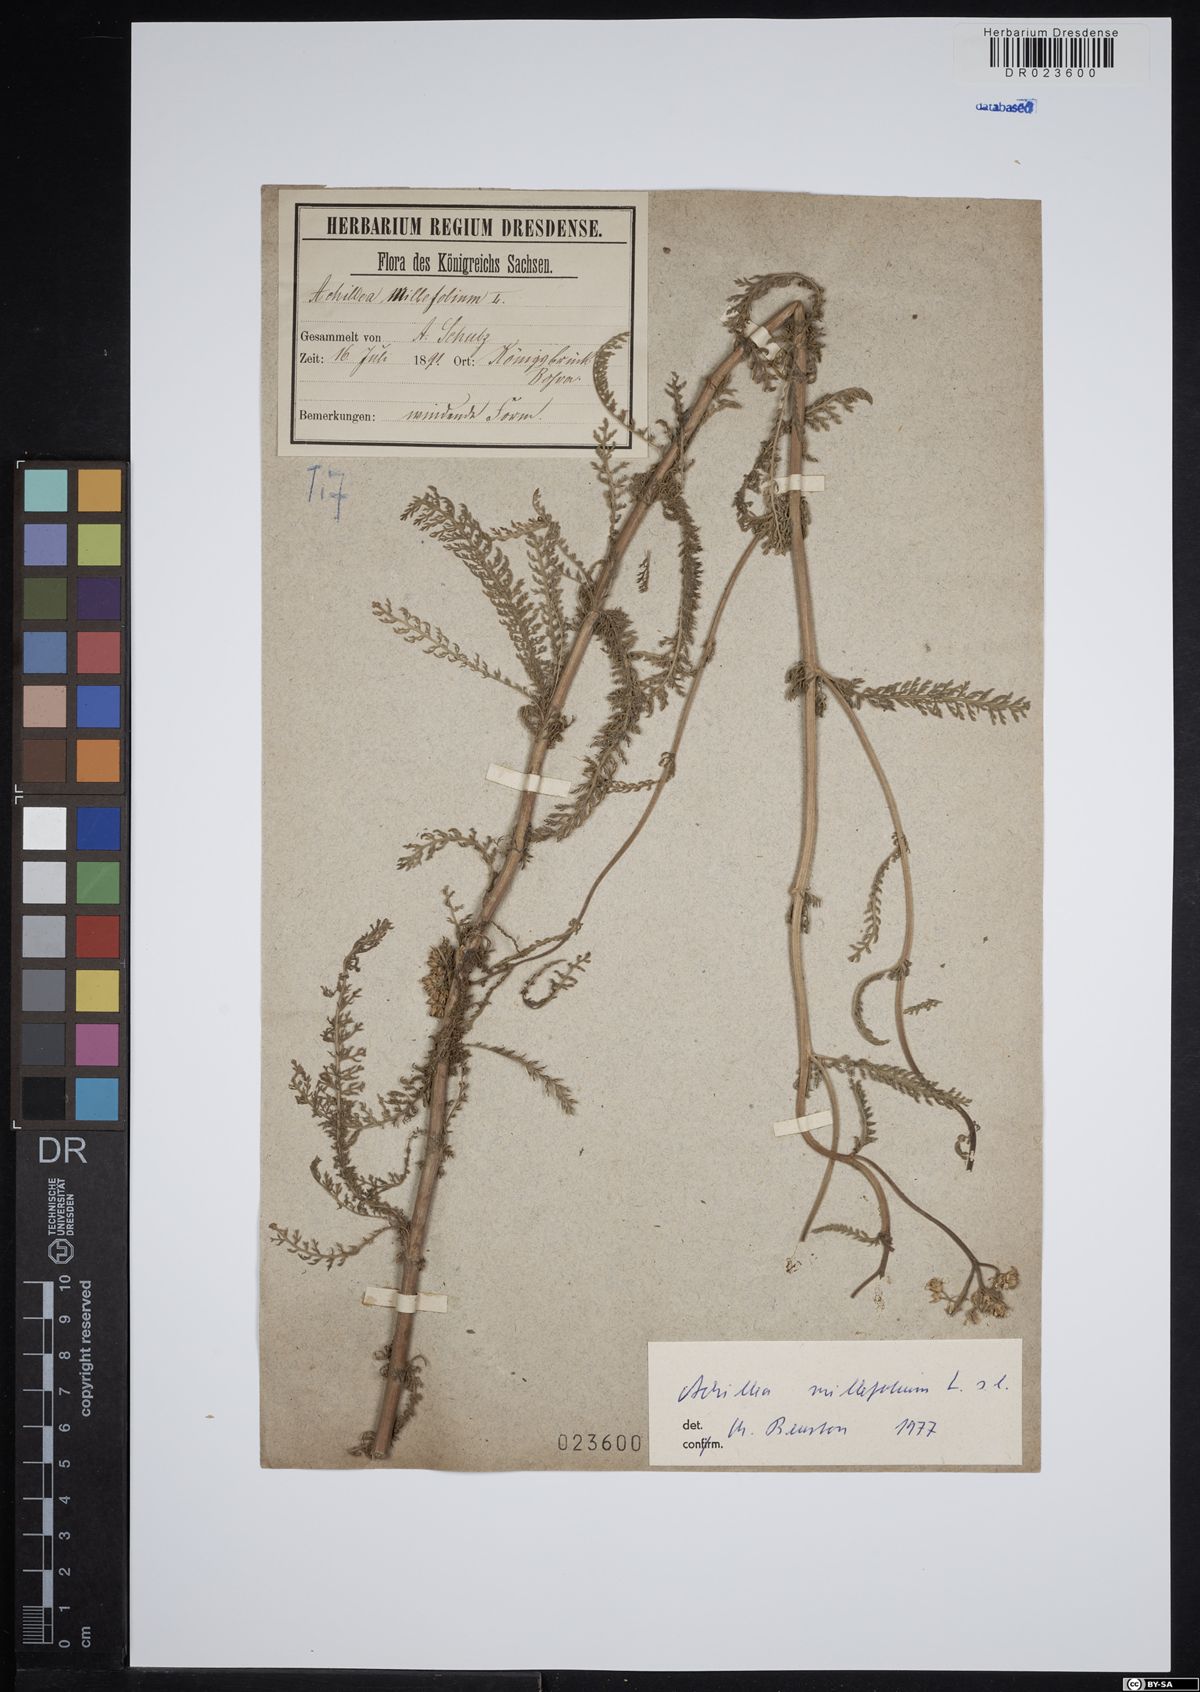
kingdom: Plantae
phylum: Tracheophyta
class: Magnoliopsida
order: Asterales
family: Asteraceae
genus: Achillea
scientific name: Achillea millefolium
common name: Yarrow
